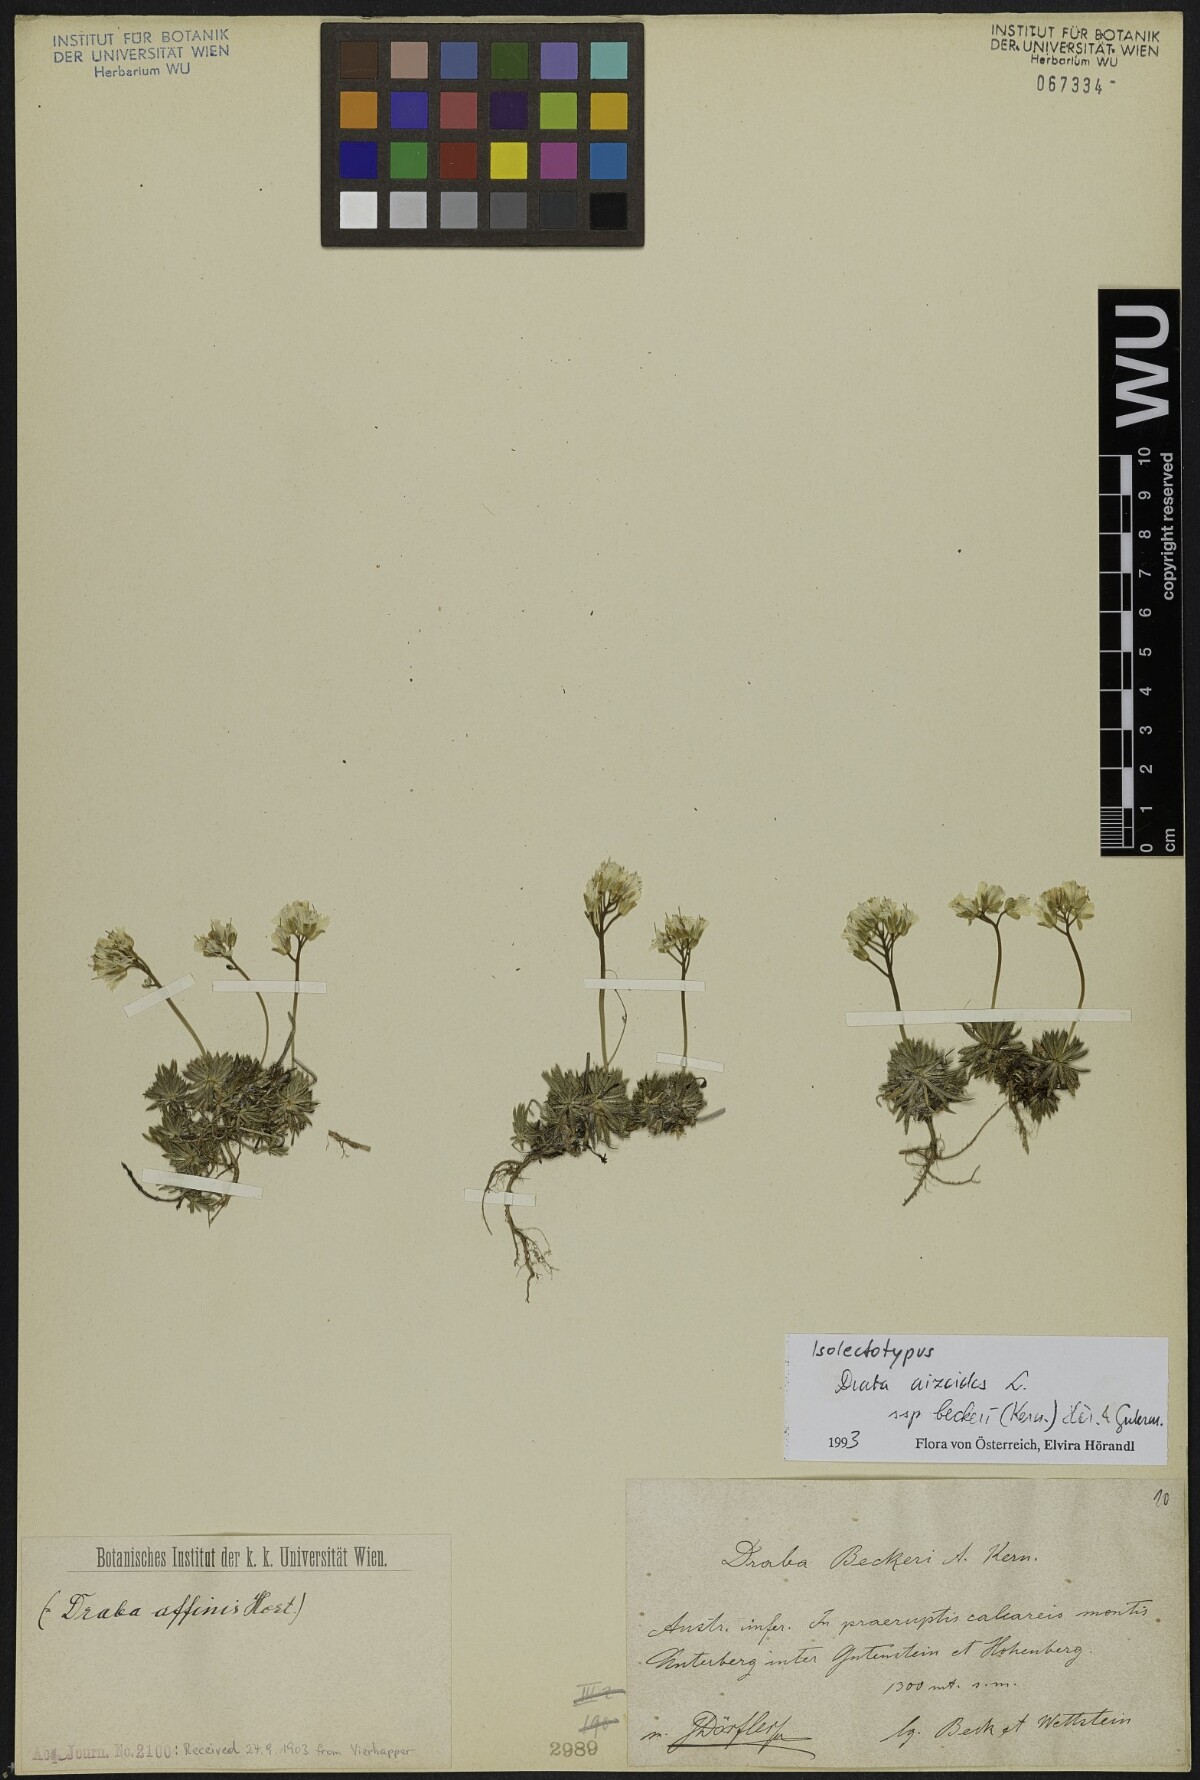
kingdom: Plantae
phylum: Tracheophyta
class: Magnoliopsida
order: Brassicales
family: Brassicaceae
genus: Draba
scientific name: Draba aizoides
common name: Yellow whitlowgrass
